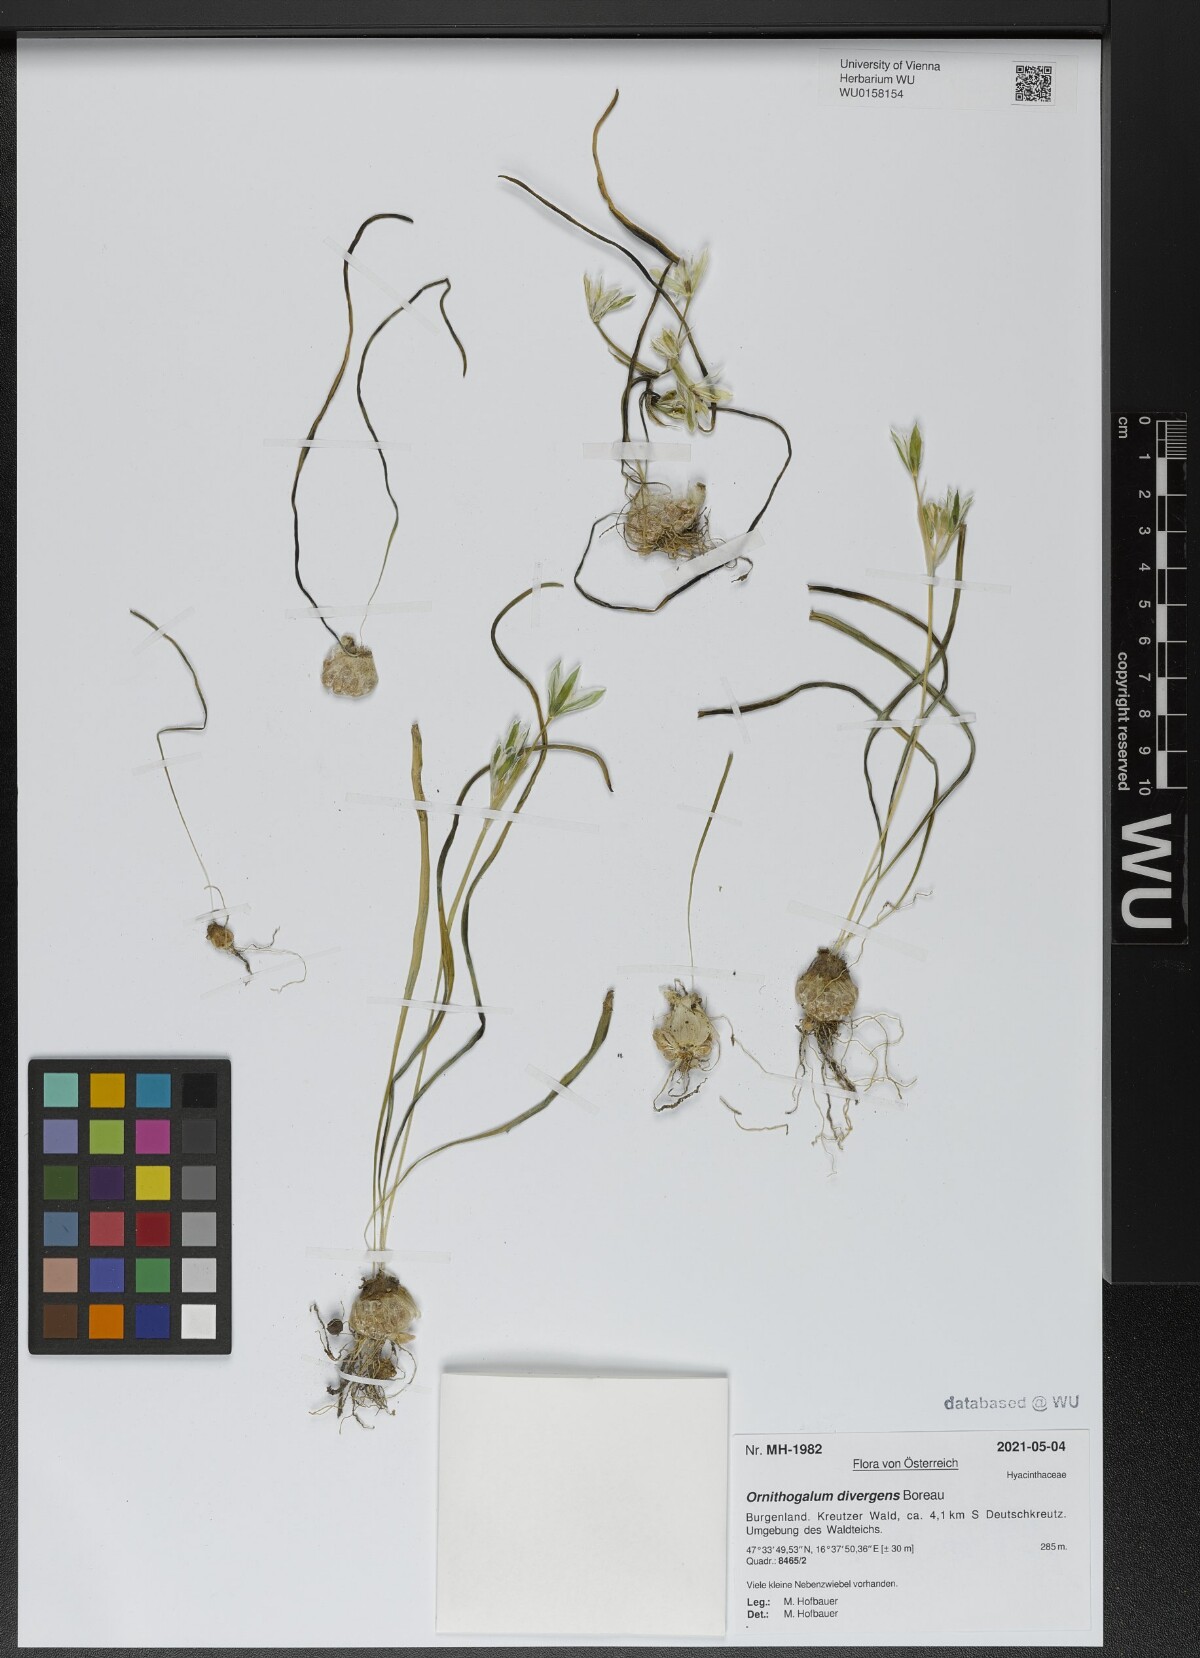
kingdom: Plantae
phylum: Tracheophyta
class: Liliopsida
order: Asparagales
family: Asparagaceae
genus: Ornithogalum
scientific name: Ornithogalum divergens
